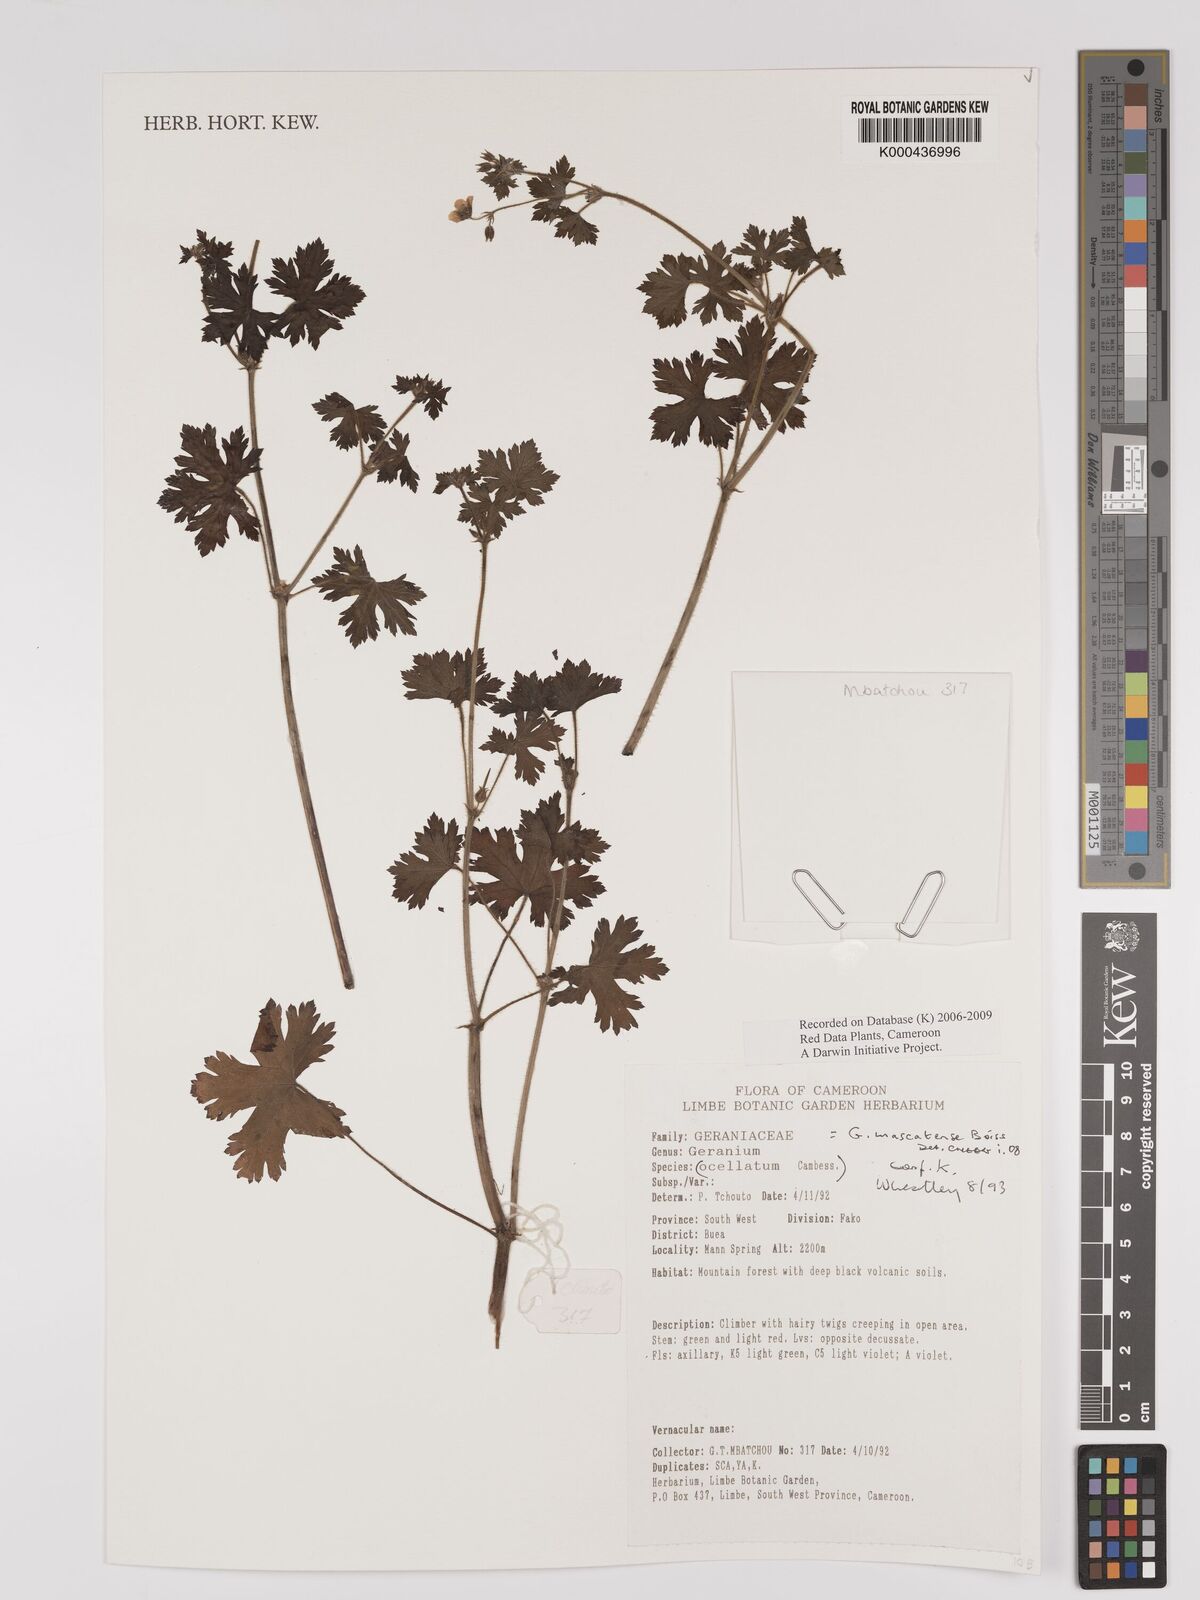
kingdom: Plantae
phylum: Tracheophyta
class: Magnoliopsida
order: Geraniales
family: Geraniaceae
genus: Geranium
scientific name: Geranium mascatense
